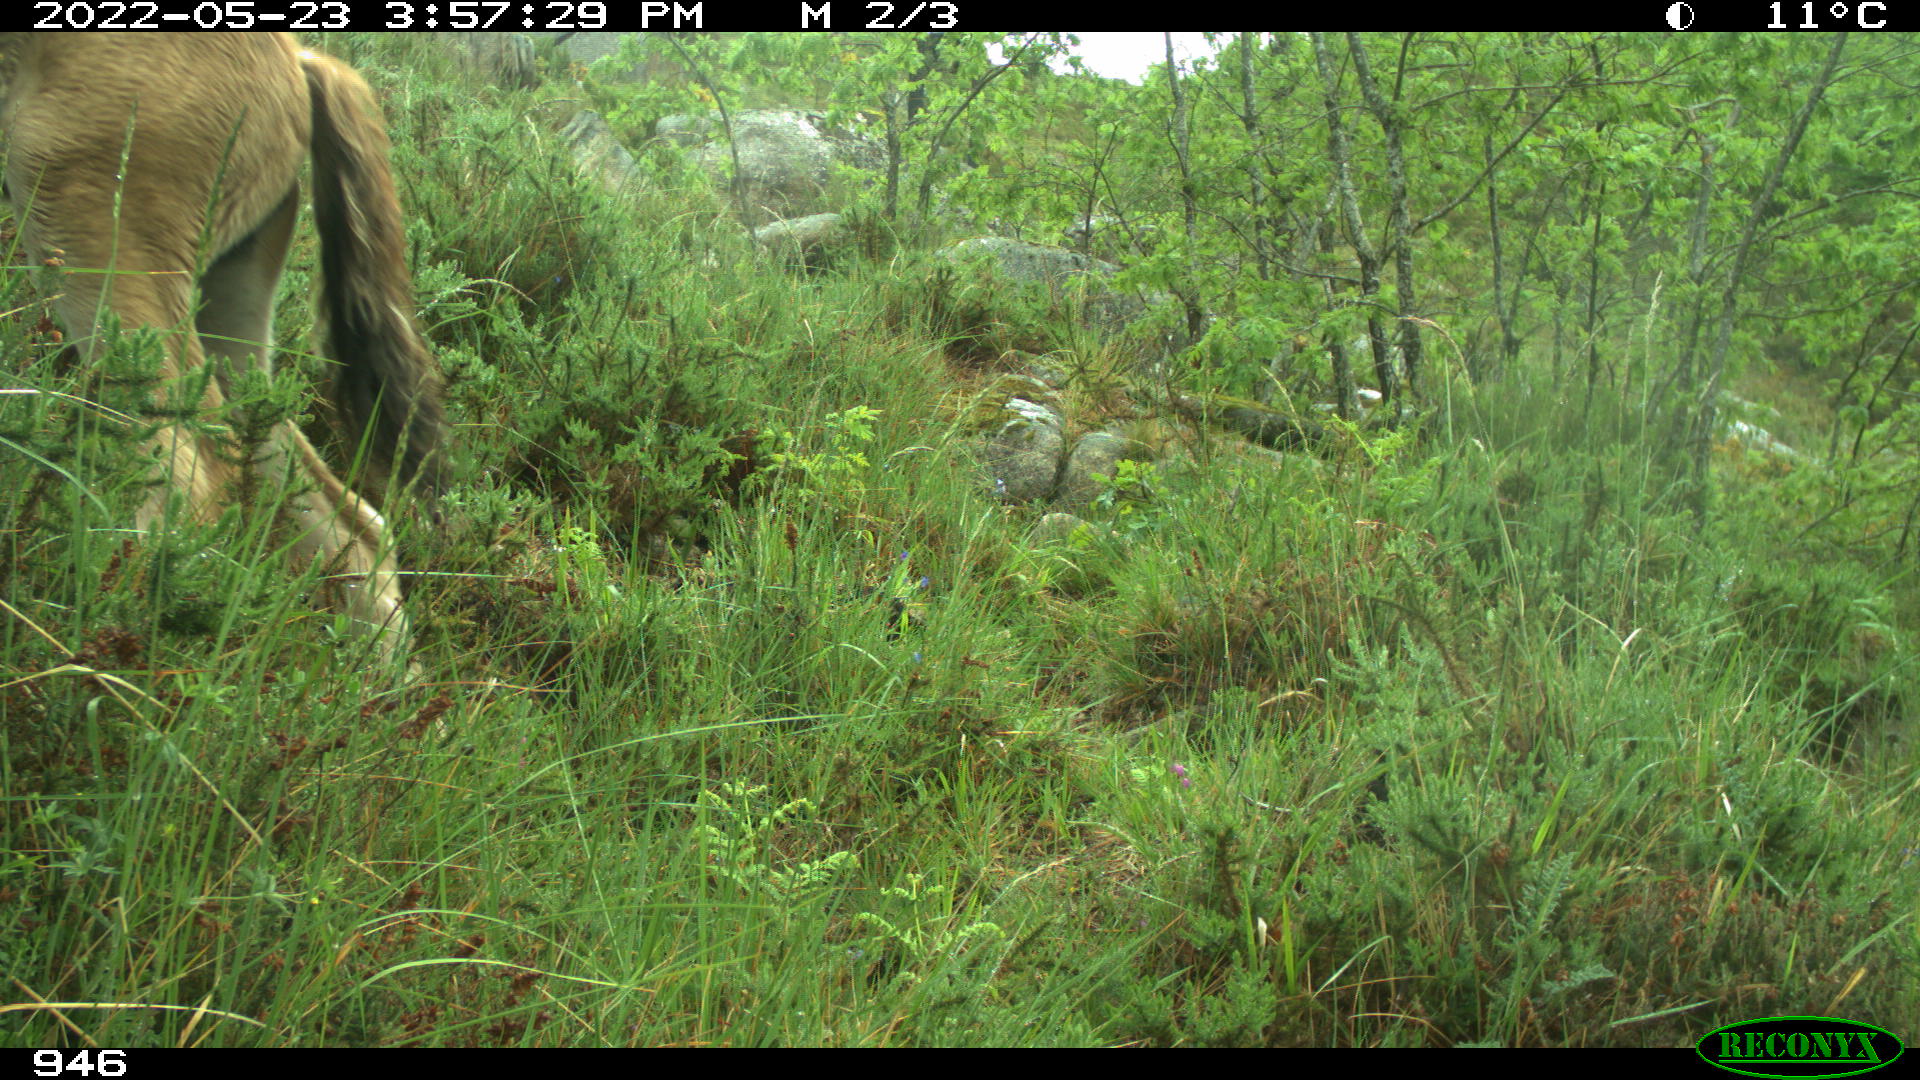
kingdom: Animalia
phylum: Chordata
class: Mammalia
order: Perissodactyla
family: Equidae
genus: Equus
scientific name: Equus caballus
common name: Horse
